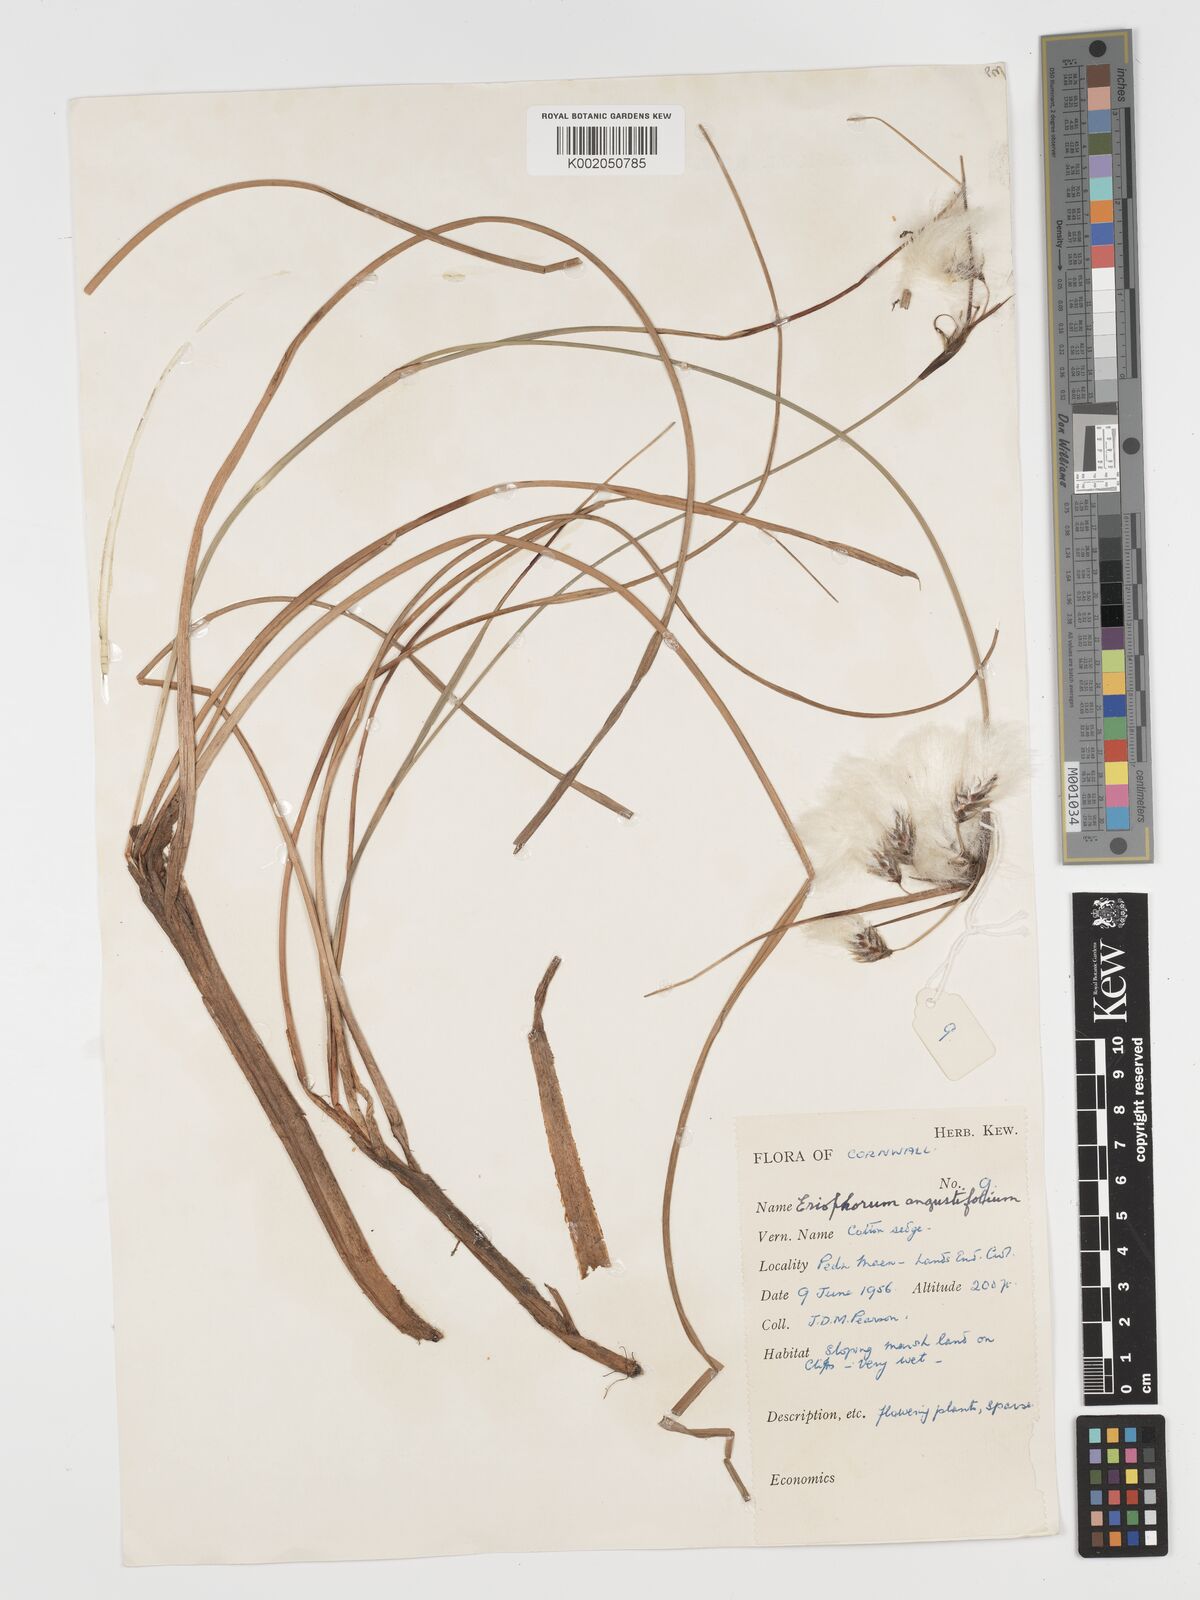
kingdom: Plantae
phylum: Tracheophyta
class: Liliopsida
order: Poales
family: Cyperaceae
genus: Eriophorum
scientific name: Eriophorum angustifolium
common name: Common cottongrass
